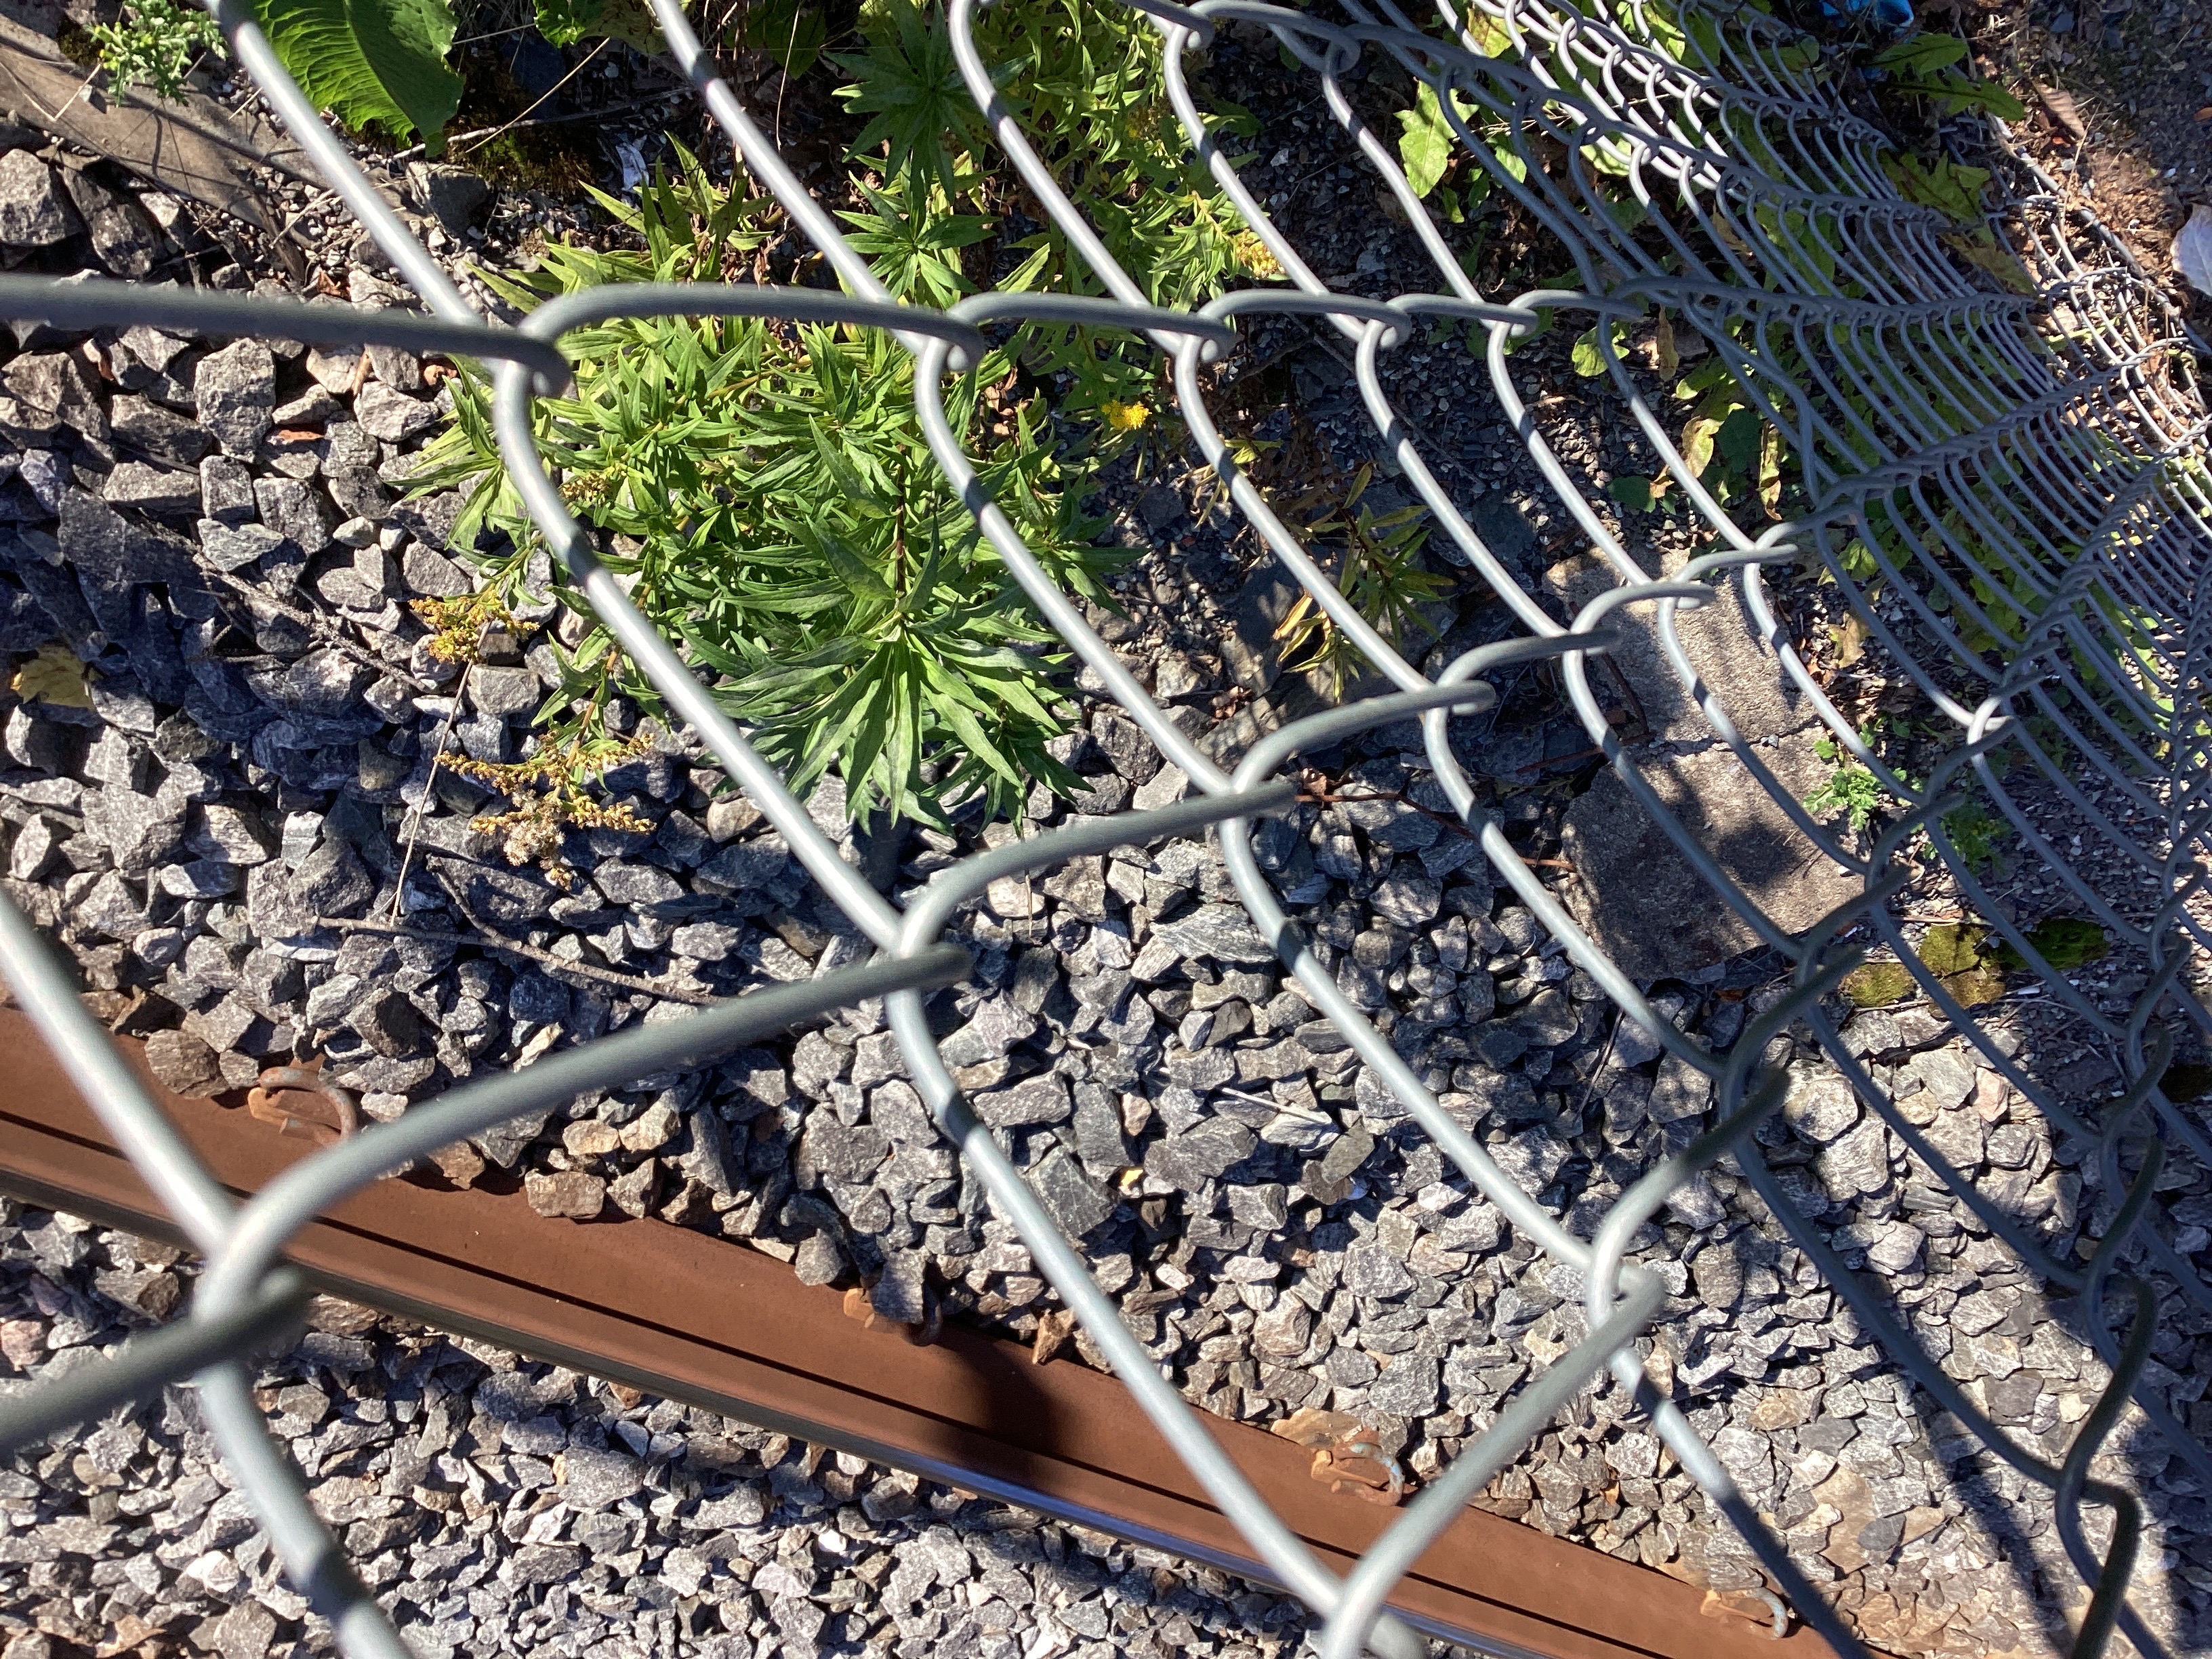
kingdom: Plantae
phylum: Tracheophyta
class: Magnoliopsida
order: Asterales
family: Asteraceae
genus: Solidago
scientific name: Solidago canadensis
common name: kanadagullris
